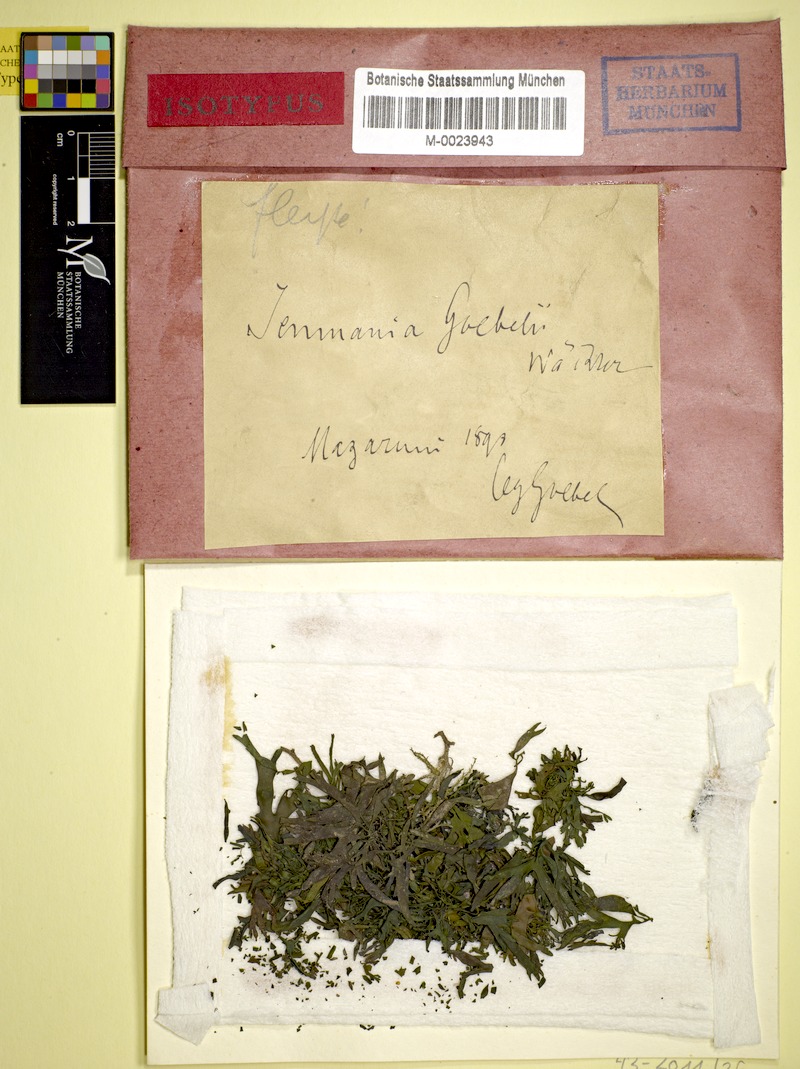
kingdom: Fungi
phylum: Ascomycota
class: Lichinomycetes
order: Lichinales
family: Lichinaceae
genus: Jenmania
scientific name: Jenmania goebelii
